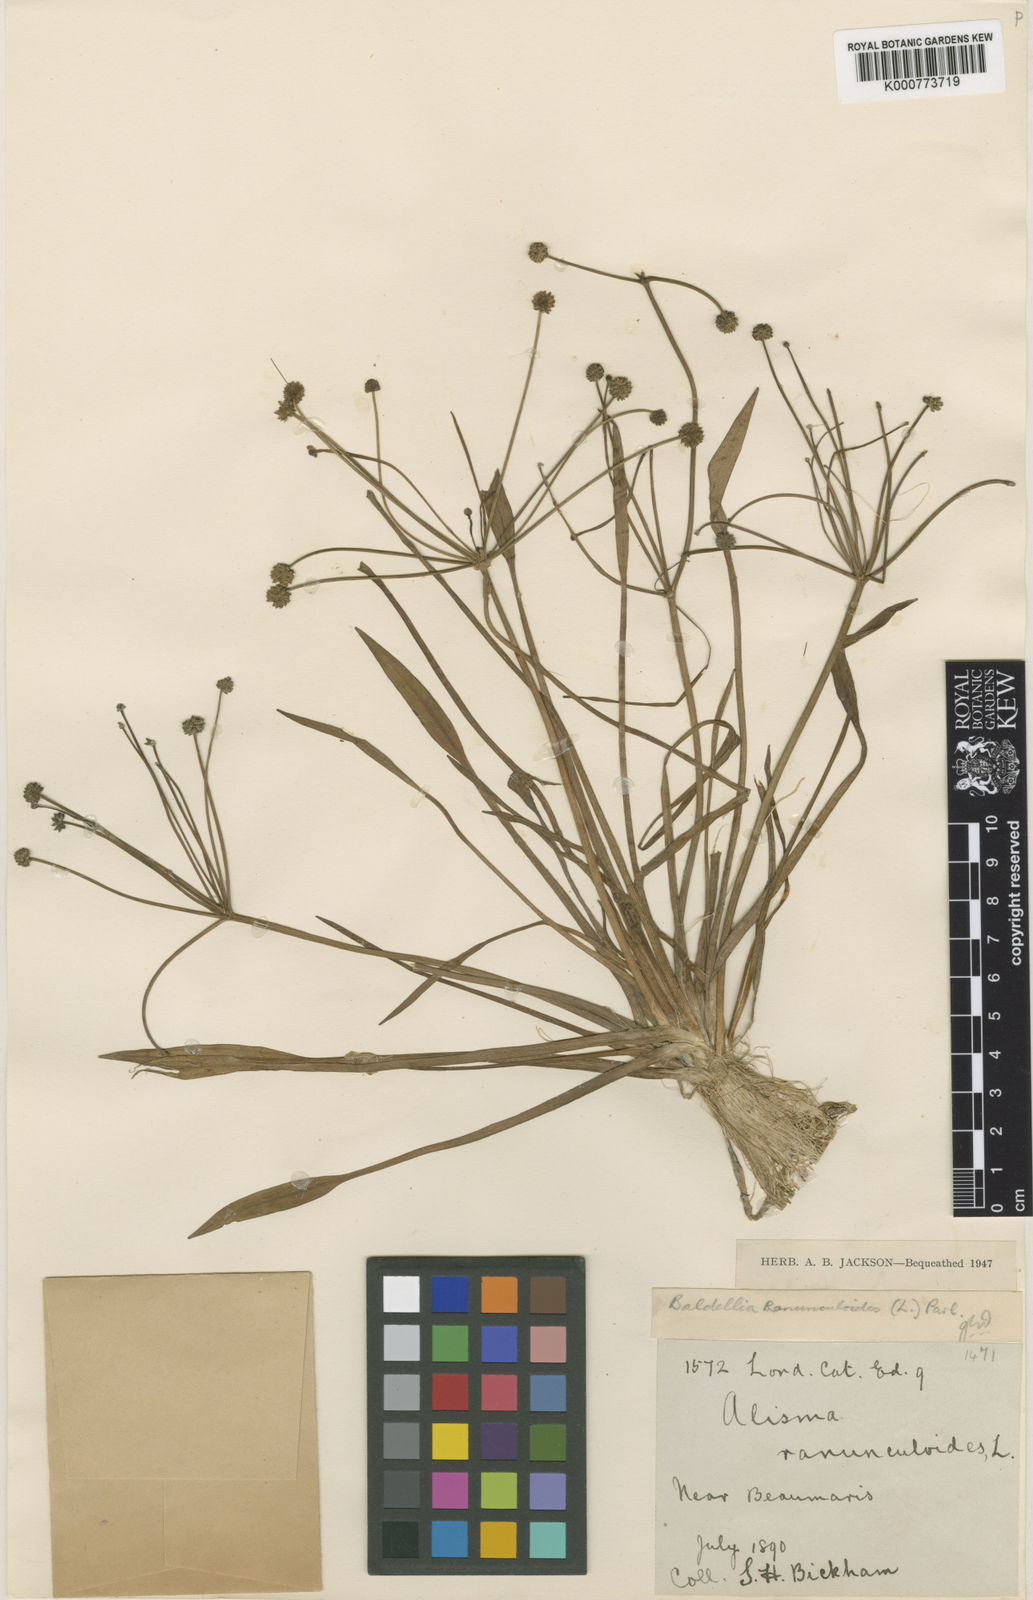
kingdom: Plantae
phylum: Tracheophyta
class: Liliopsida
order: Alismatales
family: Alismataceae
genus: Baldellia
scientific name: Baldellia ranunculoides
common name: Lesser water-plantain
